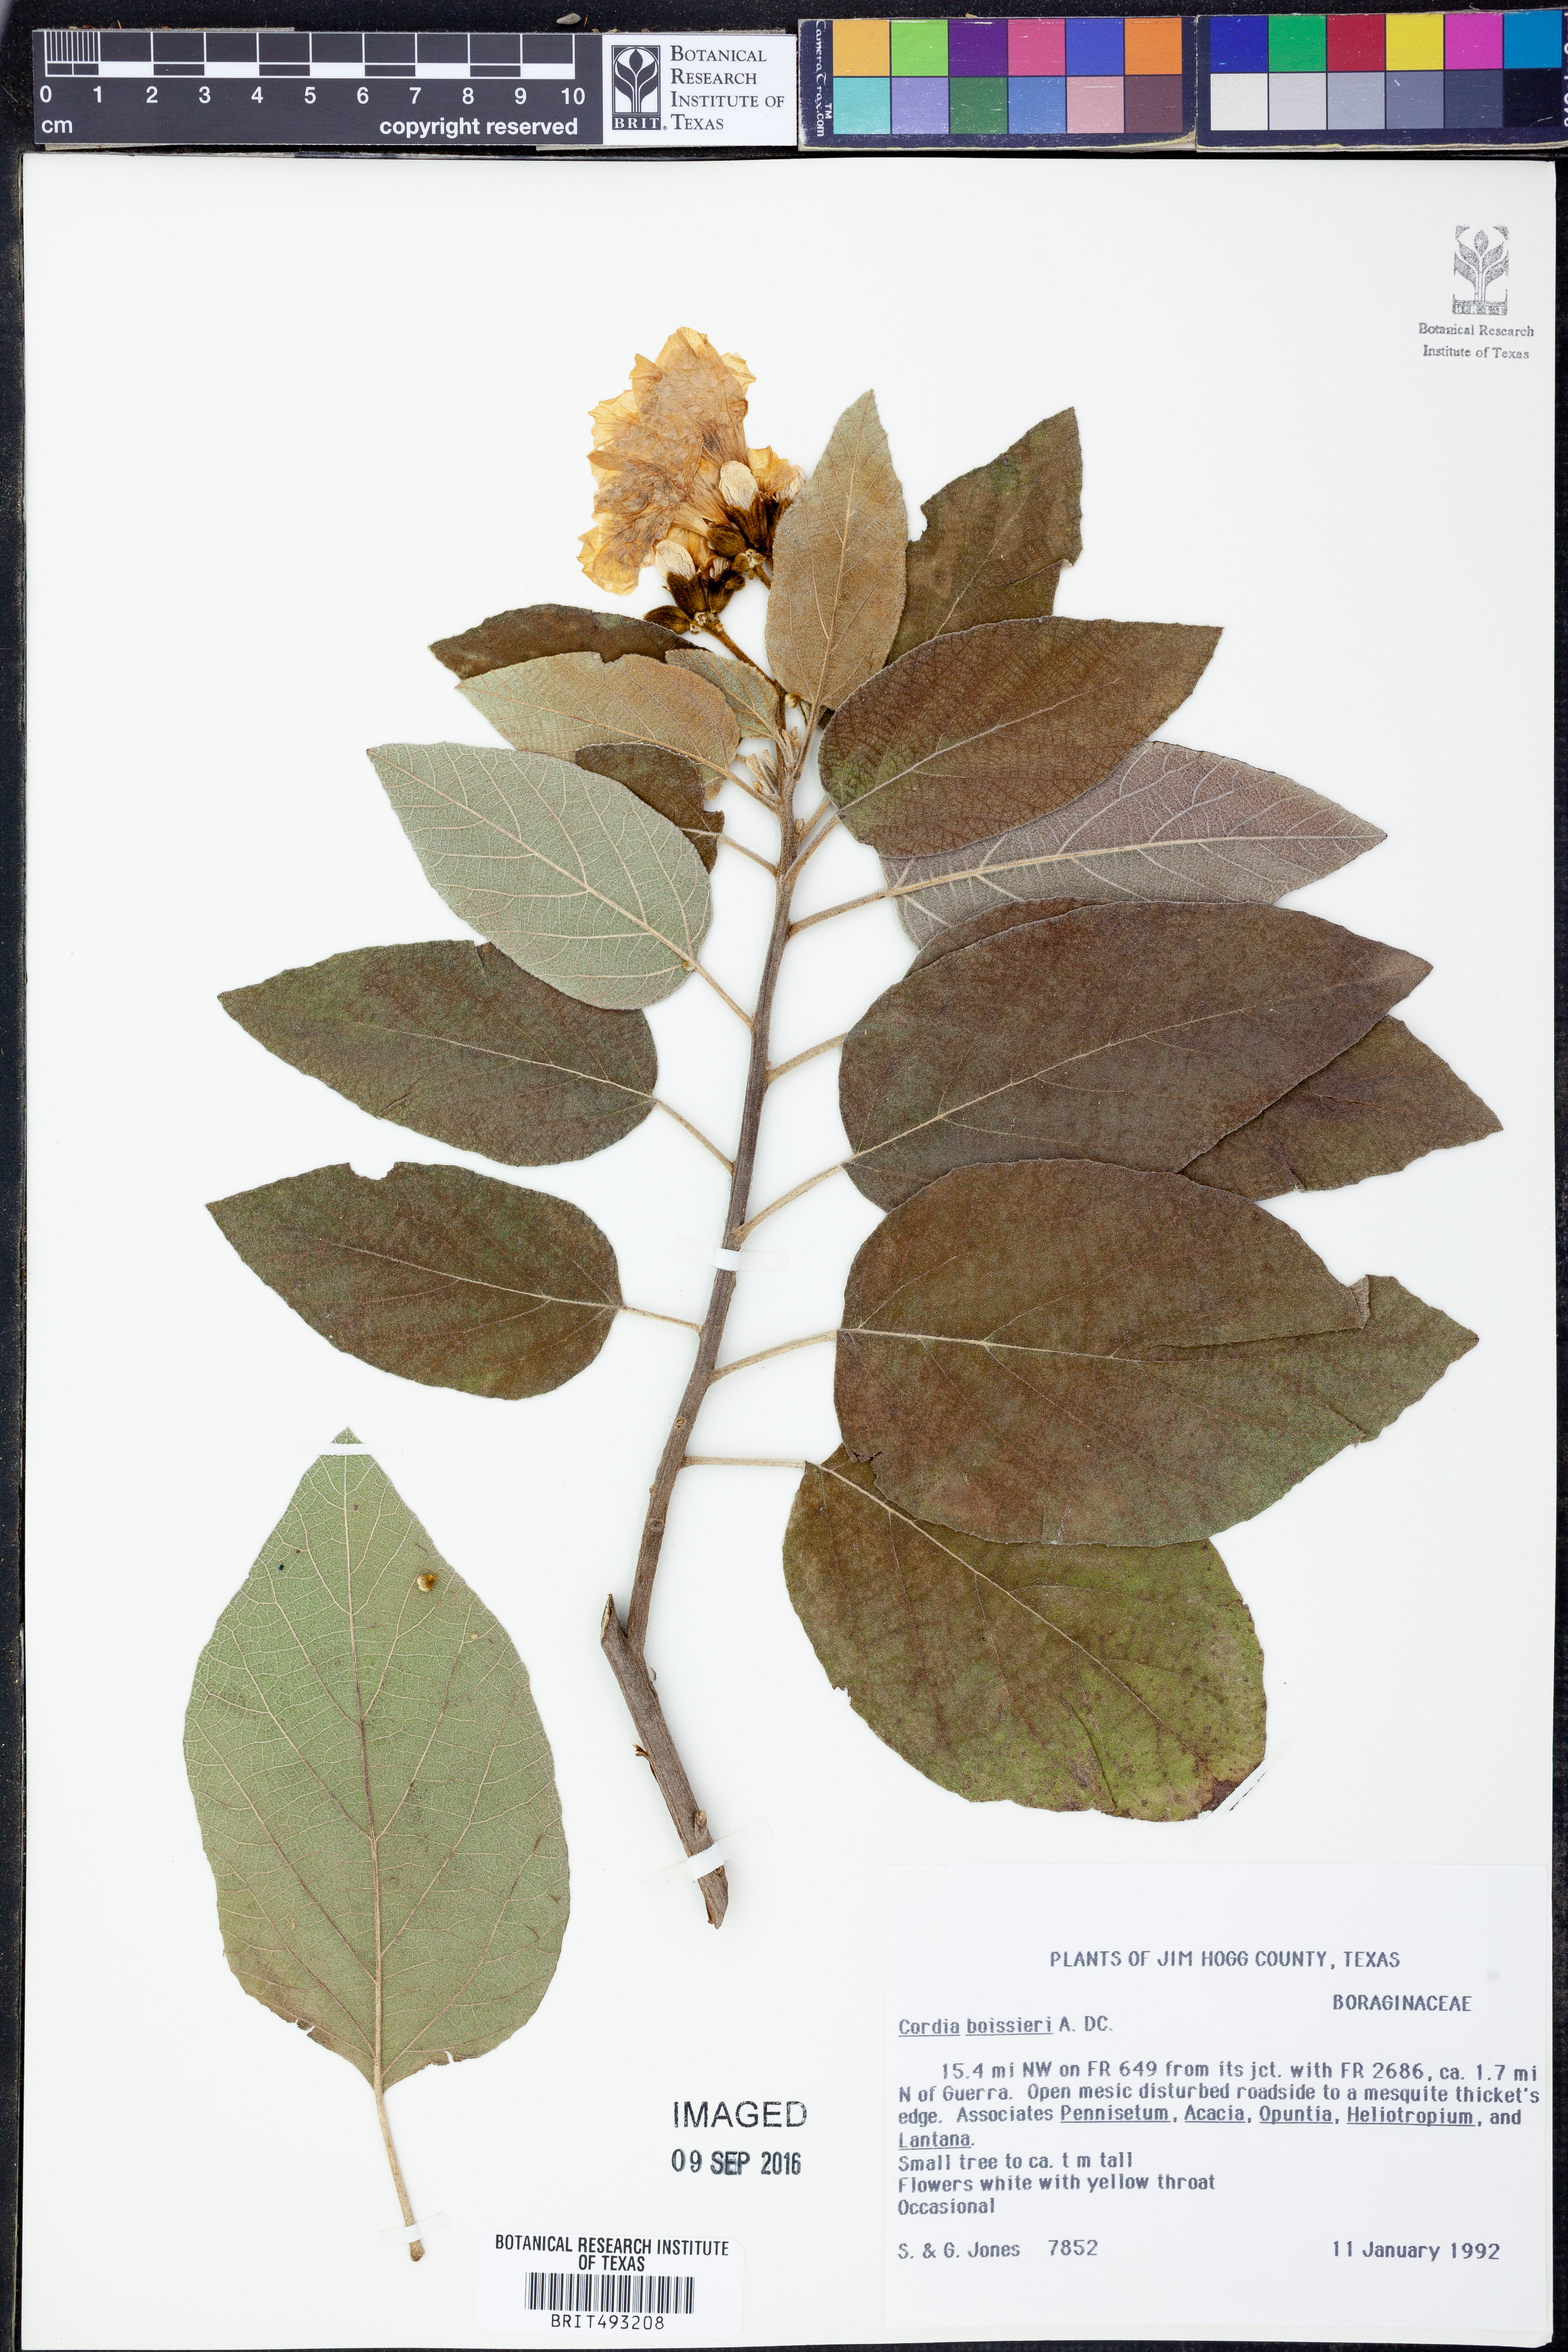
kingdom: Plantae
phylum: Tracheophyta
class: Magnoliopsida
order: Boraginales
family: Cordiaceae
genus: Cordia
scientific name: Cordia boissieri
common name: Mexican-olive
